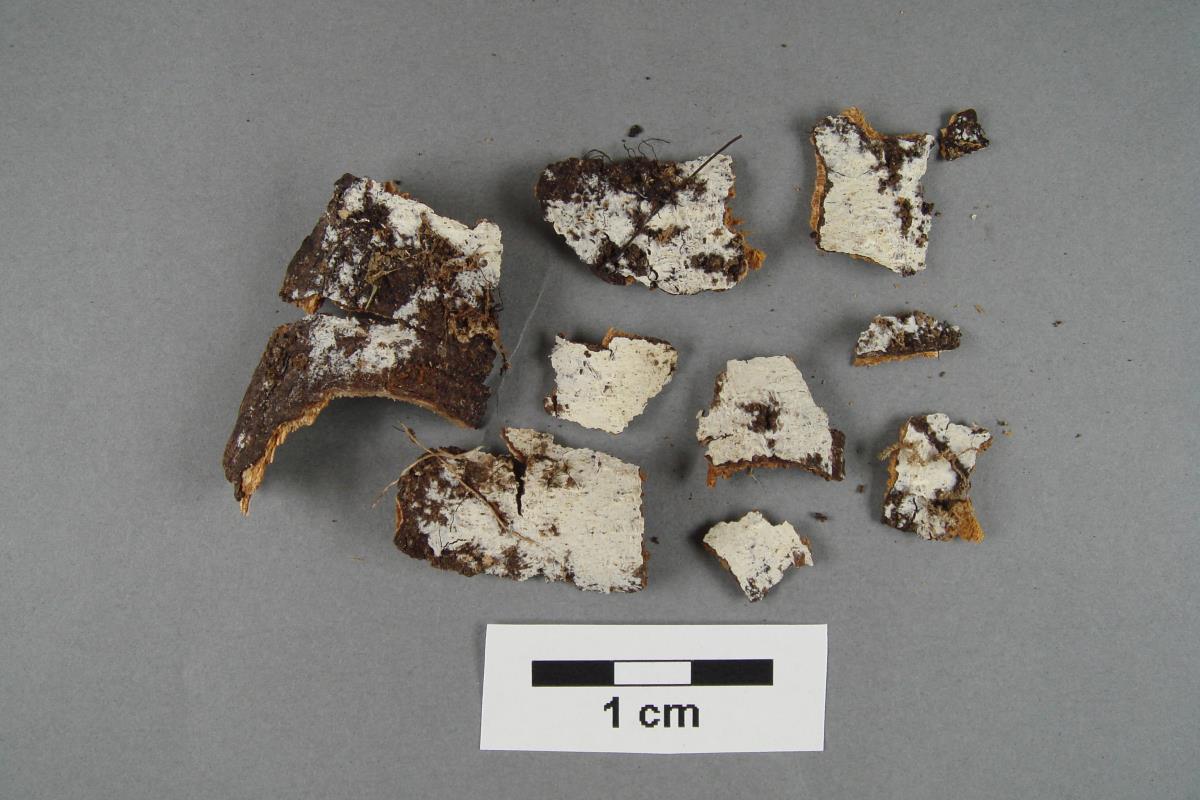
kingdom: Fungi
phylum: Basidiomycota
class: Agaricomycetes
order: Polyporales
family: Hyphodermataceae
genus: Hyphoderma
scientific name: Hyphoderma assimile
